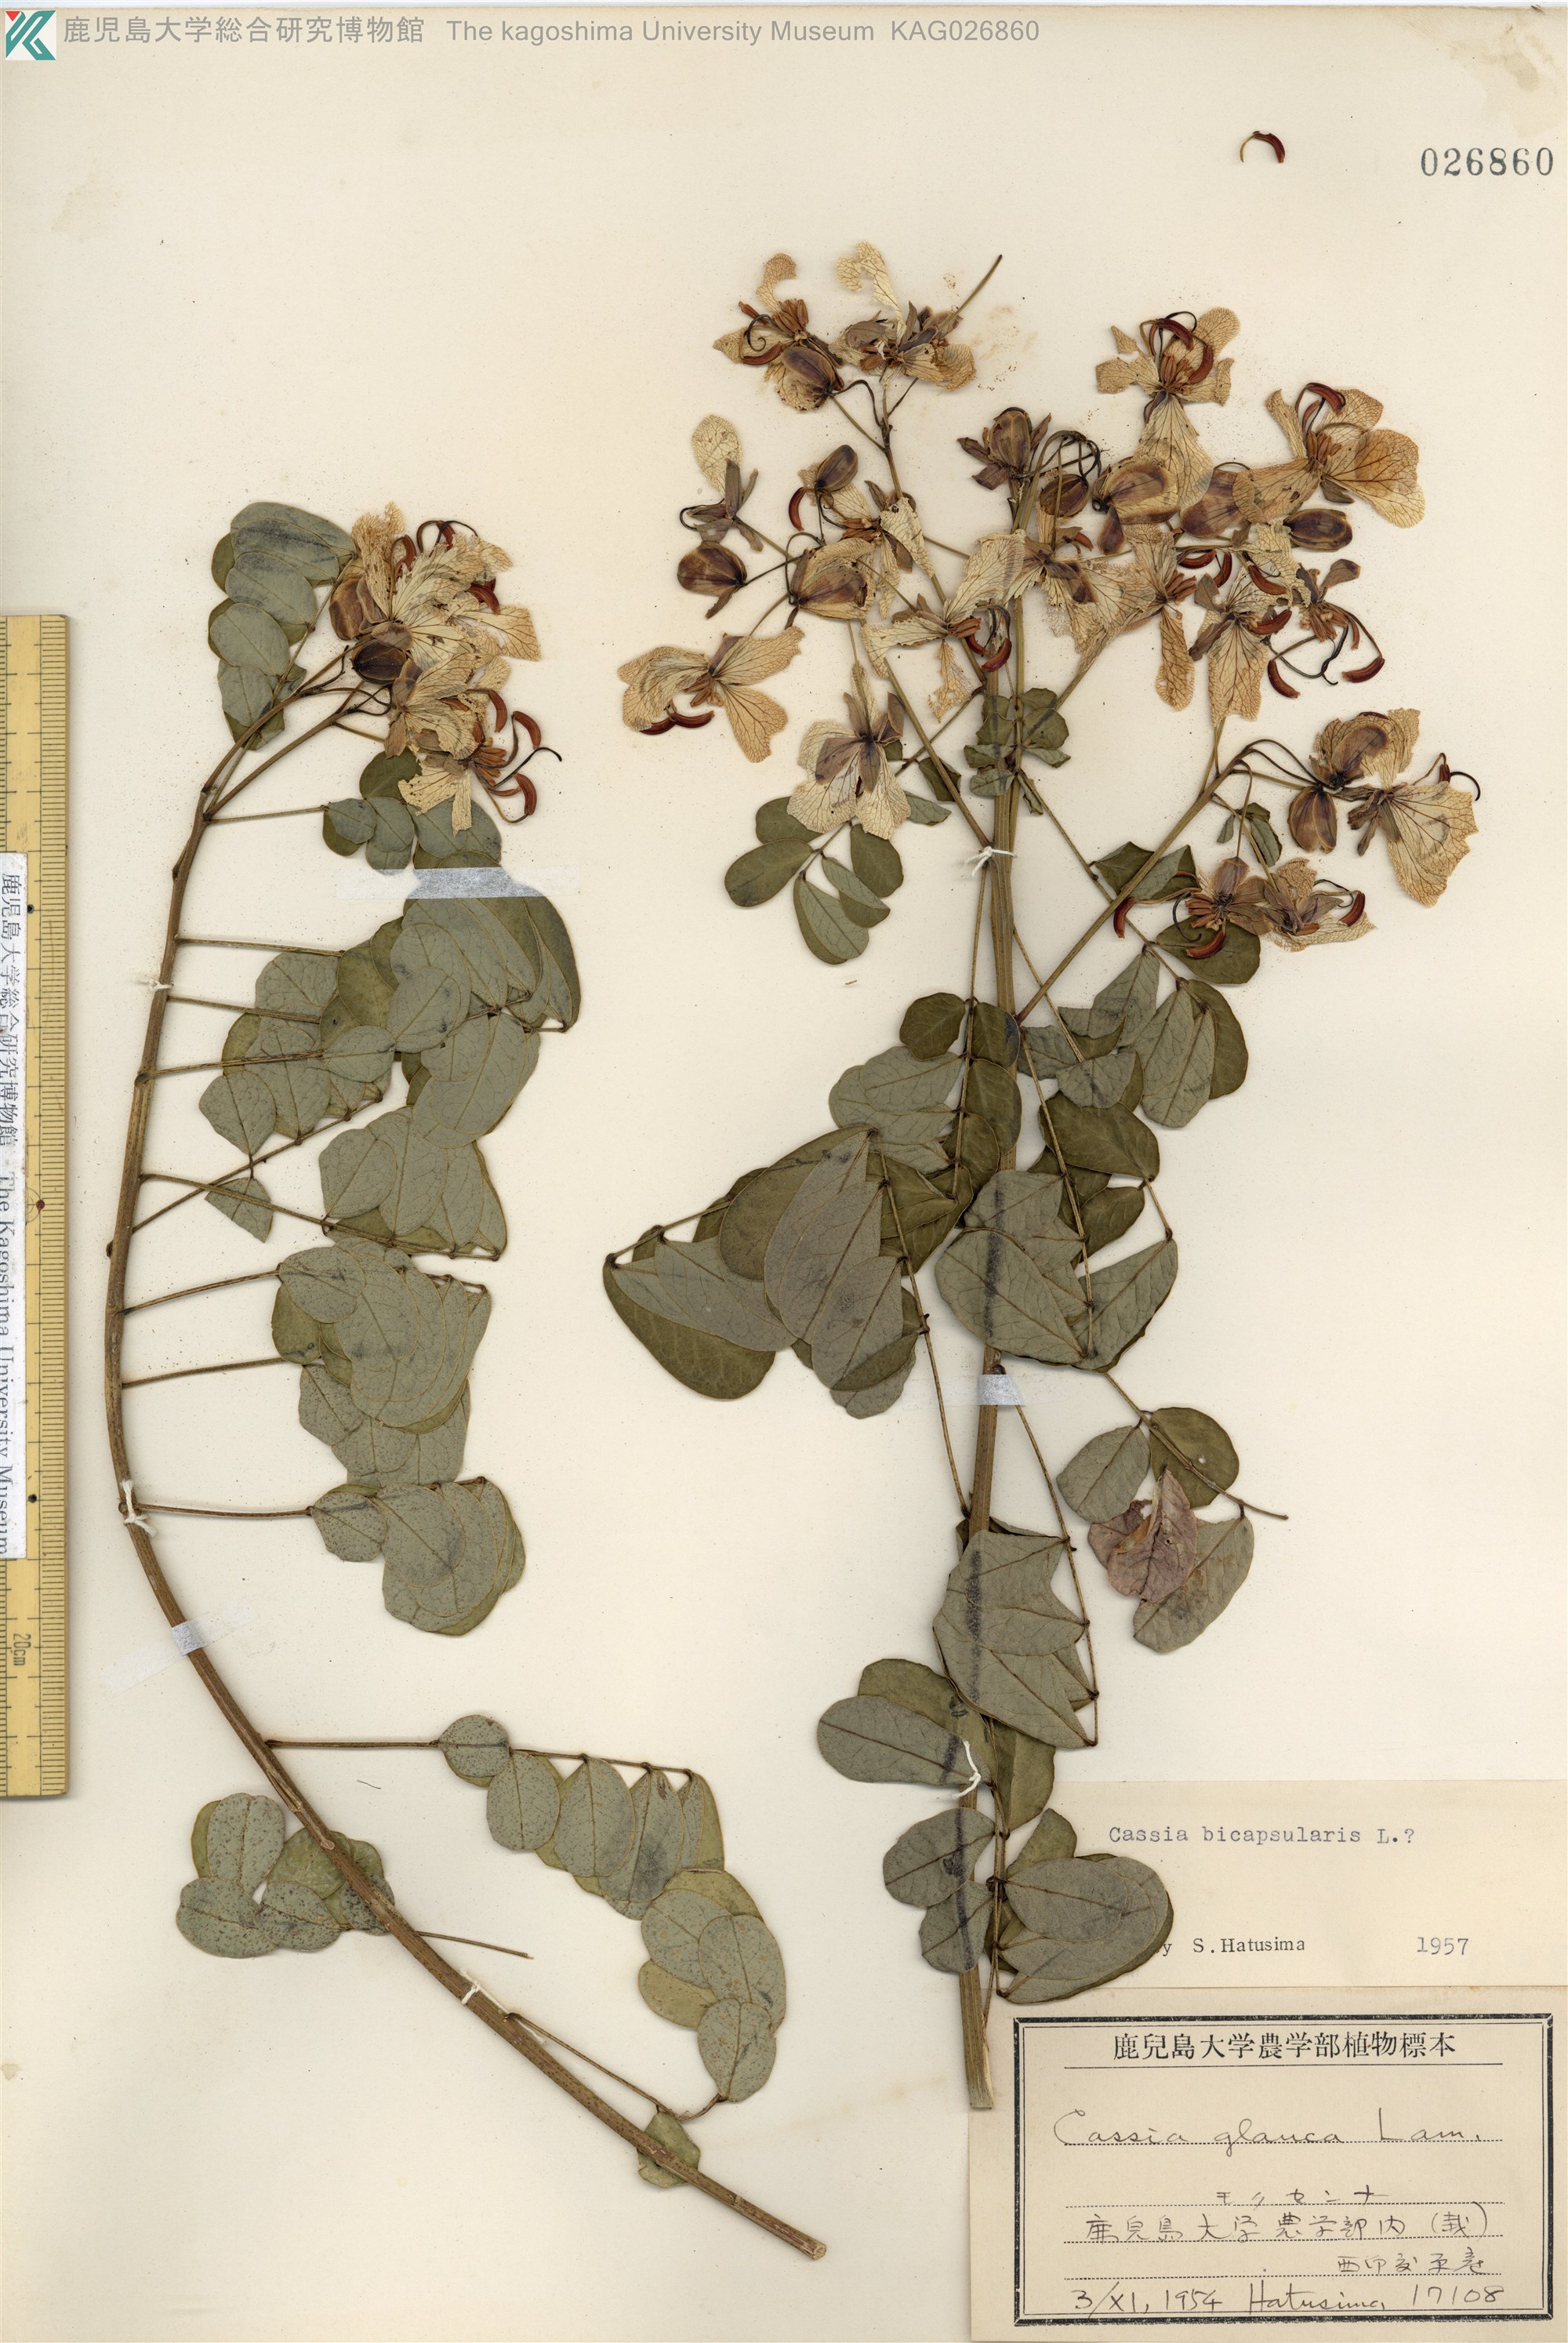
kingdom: Plantae
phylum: Tracheophyta
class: Magnoliopsida
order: Fabales
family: Fabaceae
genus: Cassia
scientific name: Cassia
